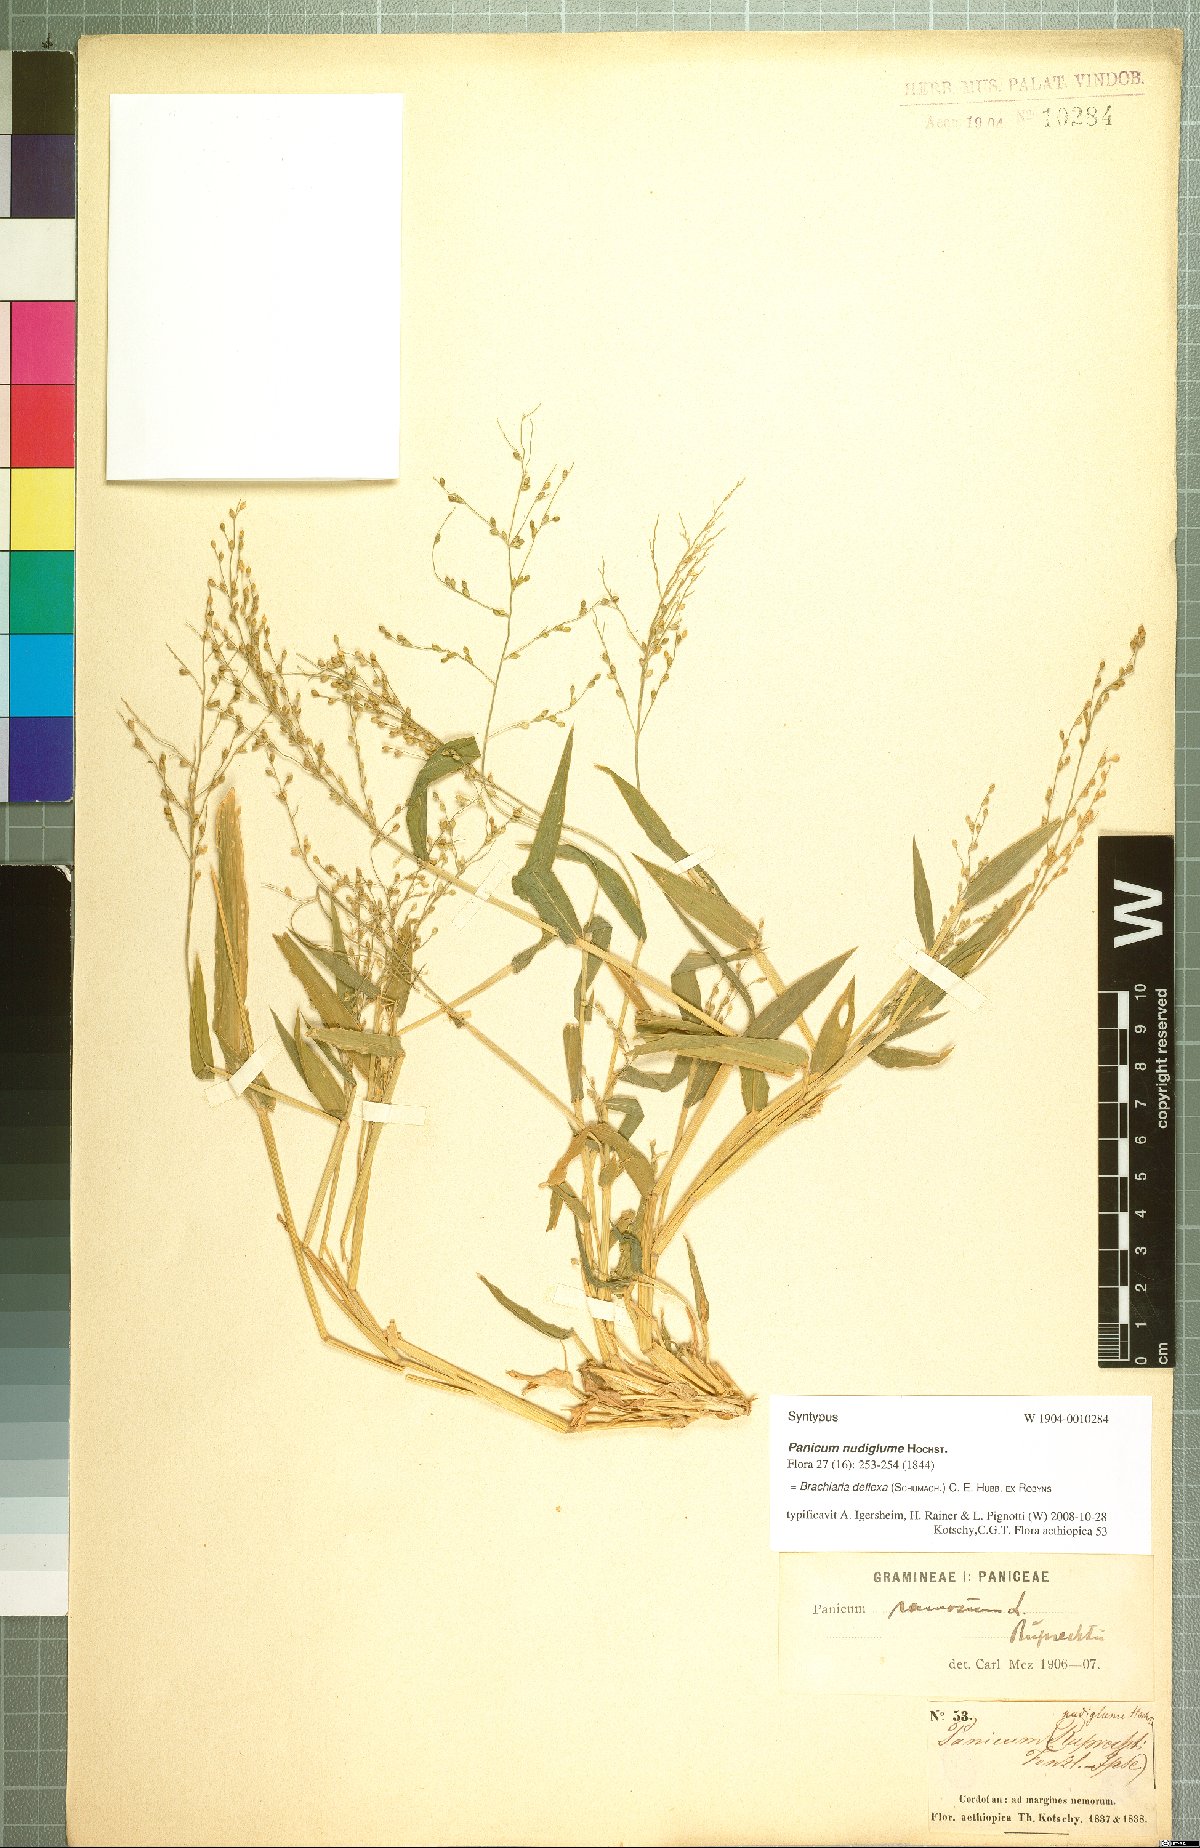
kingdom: Plantae
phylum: Tracheophyta
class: Liliopsida
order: Poales
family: Poaceae
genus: Urochloa
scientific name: Urochloa deflexa
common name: Guinea millet
